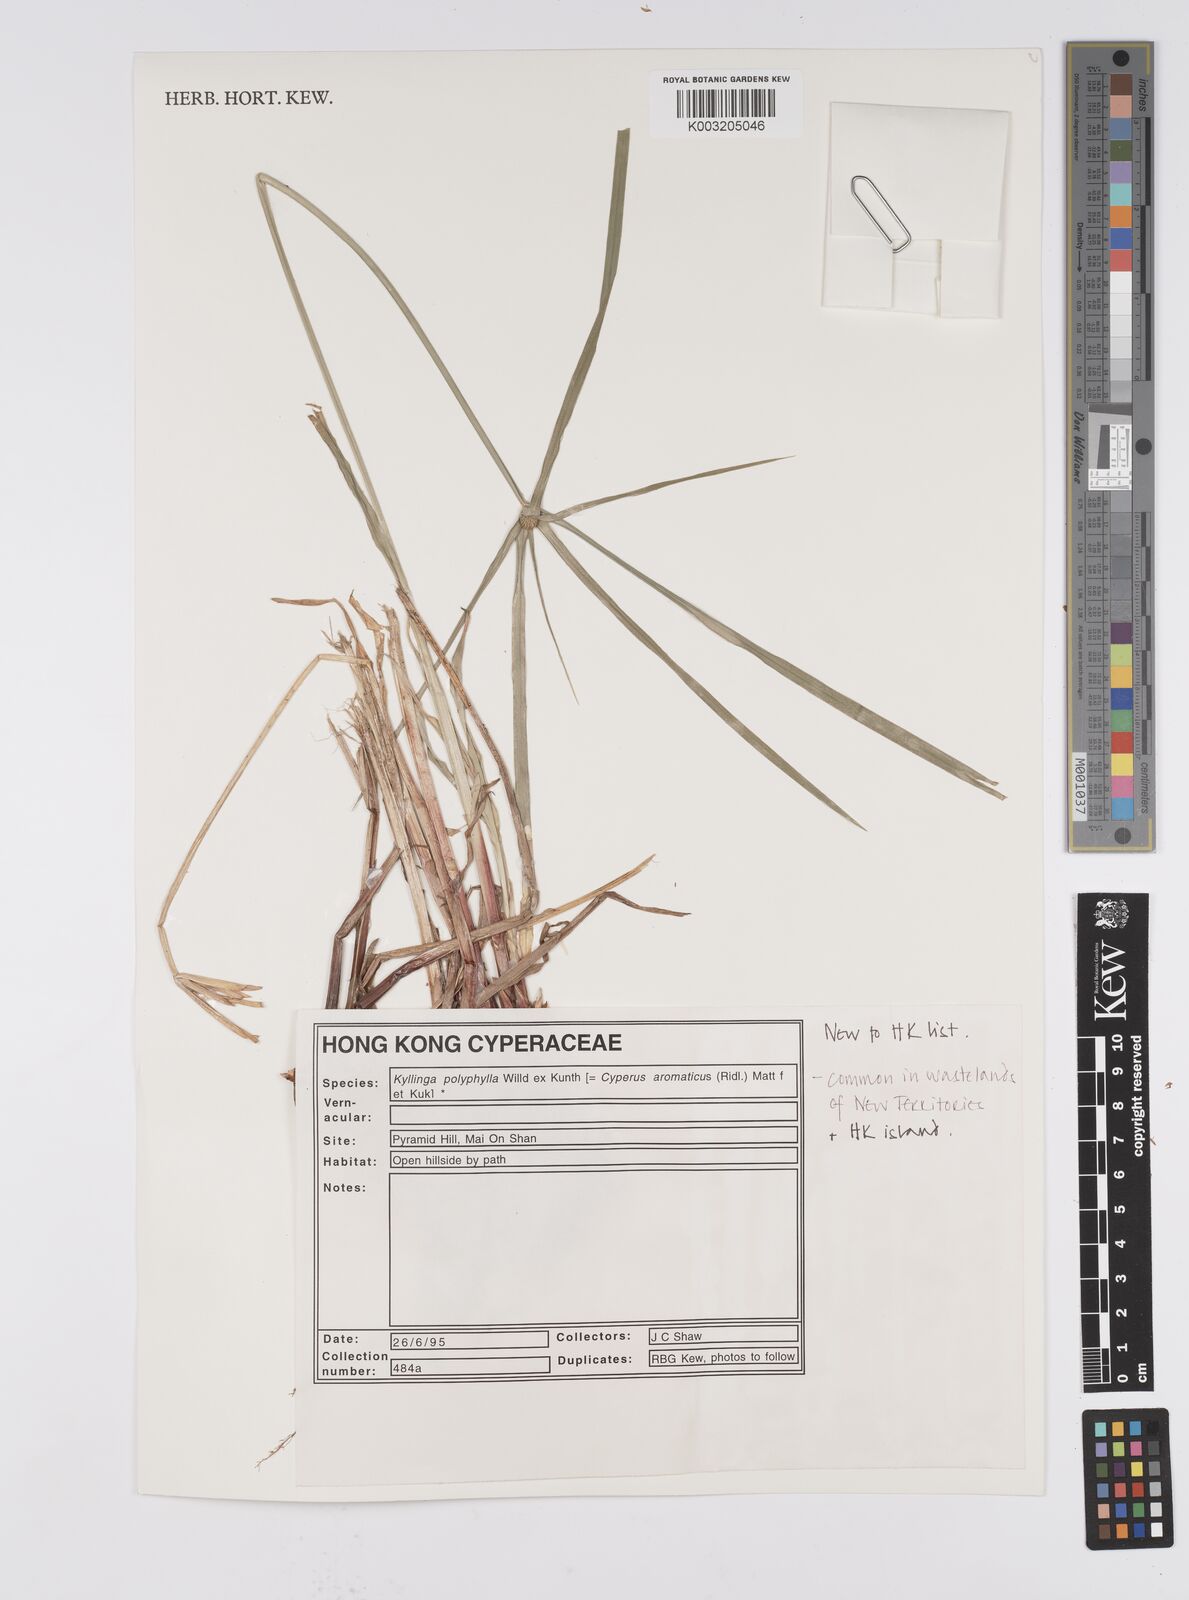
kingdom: Plantae
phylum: Tracheophyta
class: Liliopsida
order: Poales
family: Cyperaceae
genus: Cyperus
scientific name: Cyperus
